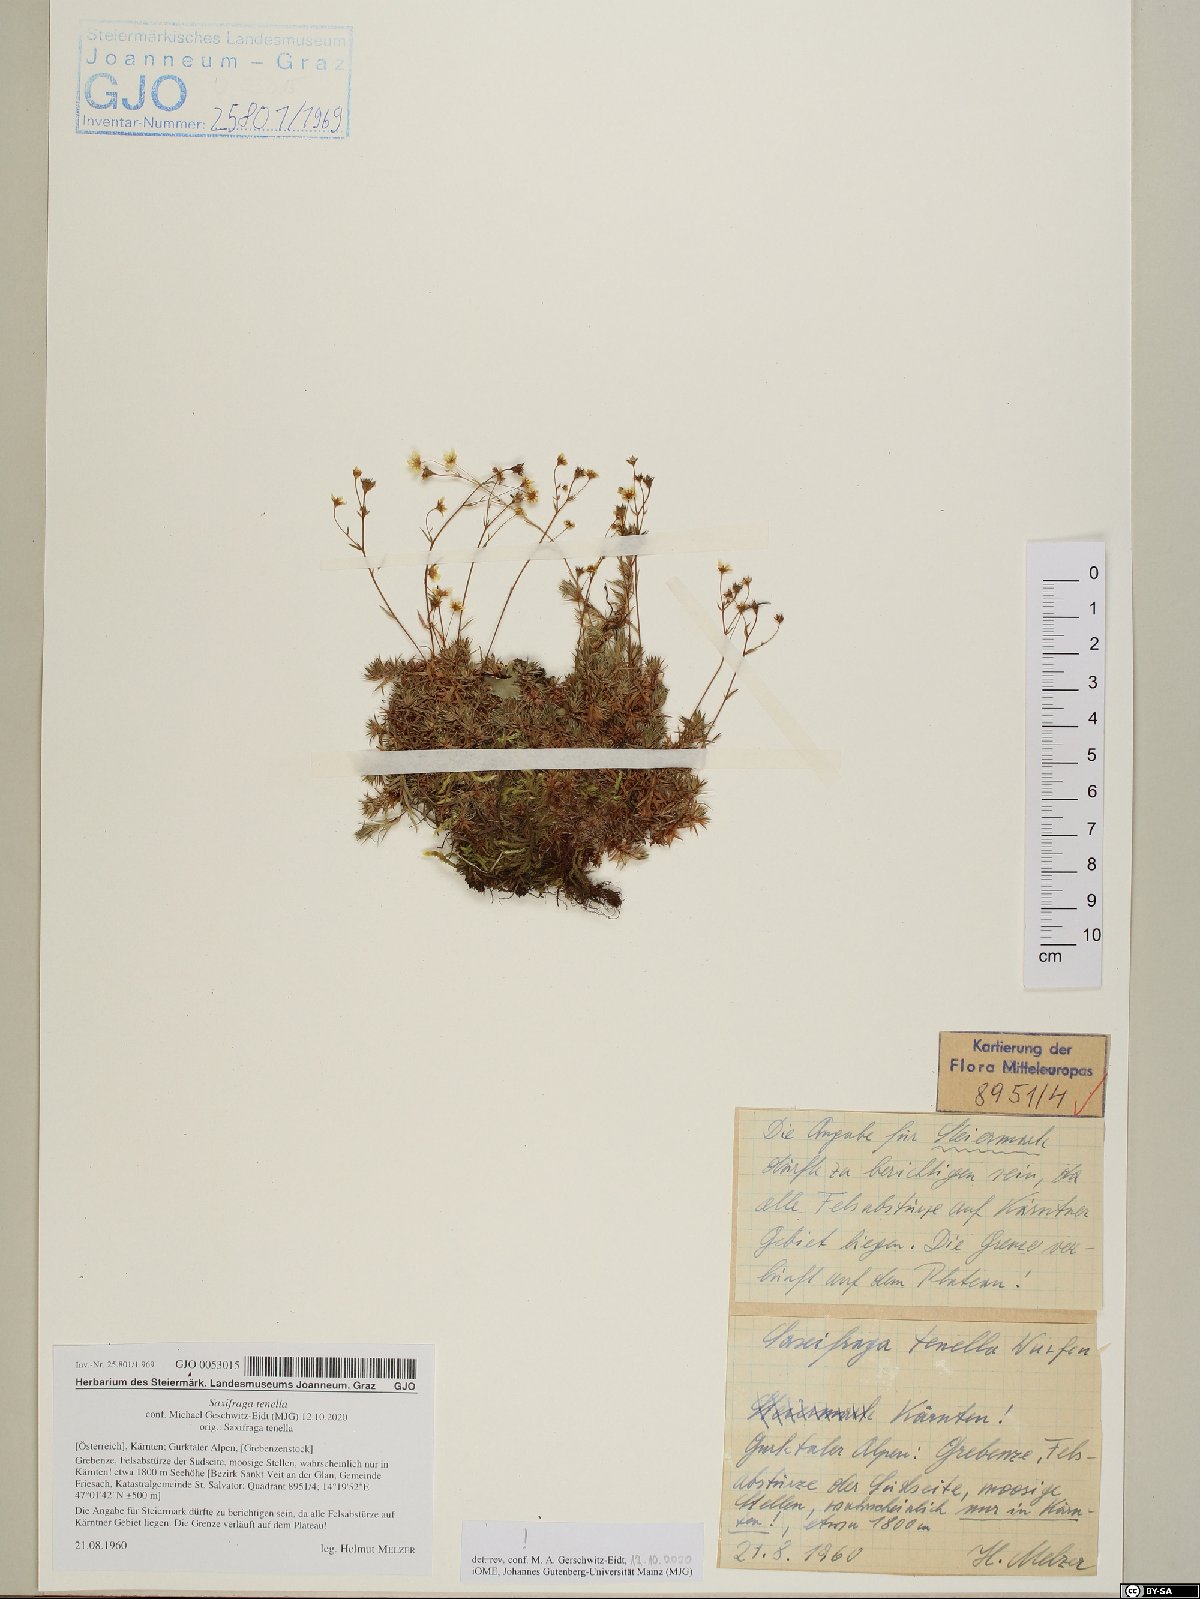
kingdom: Plantae
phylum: Tracheophyta
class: Magnoliopsida
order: Saxifragales
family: Saxifragaceae
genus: Saxifraga
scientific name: Saxifraga tenella
